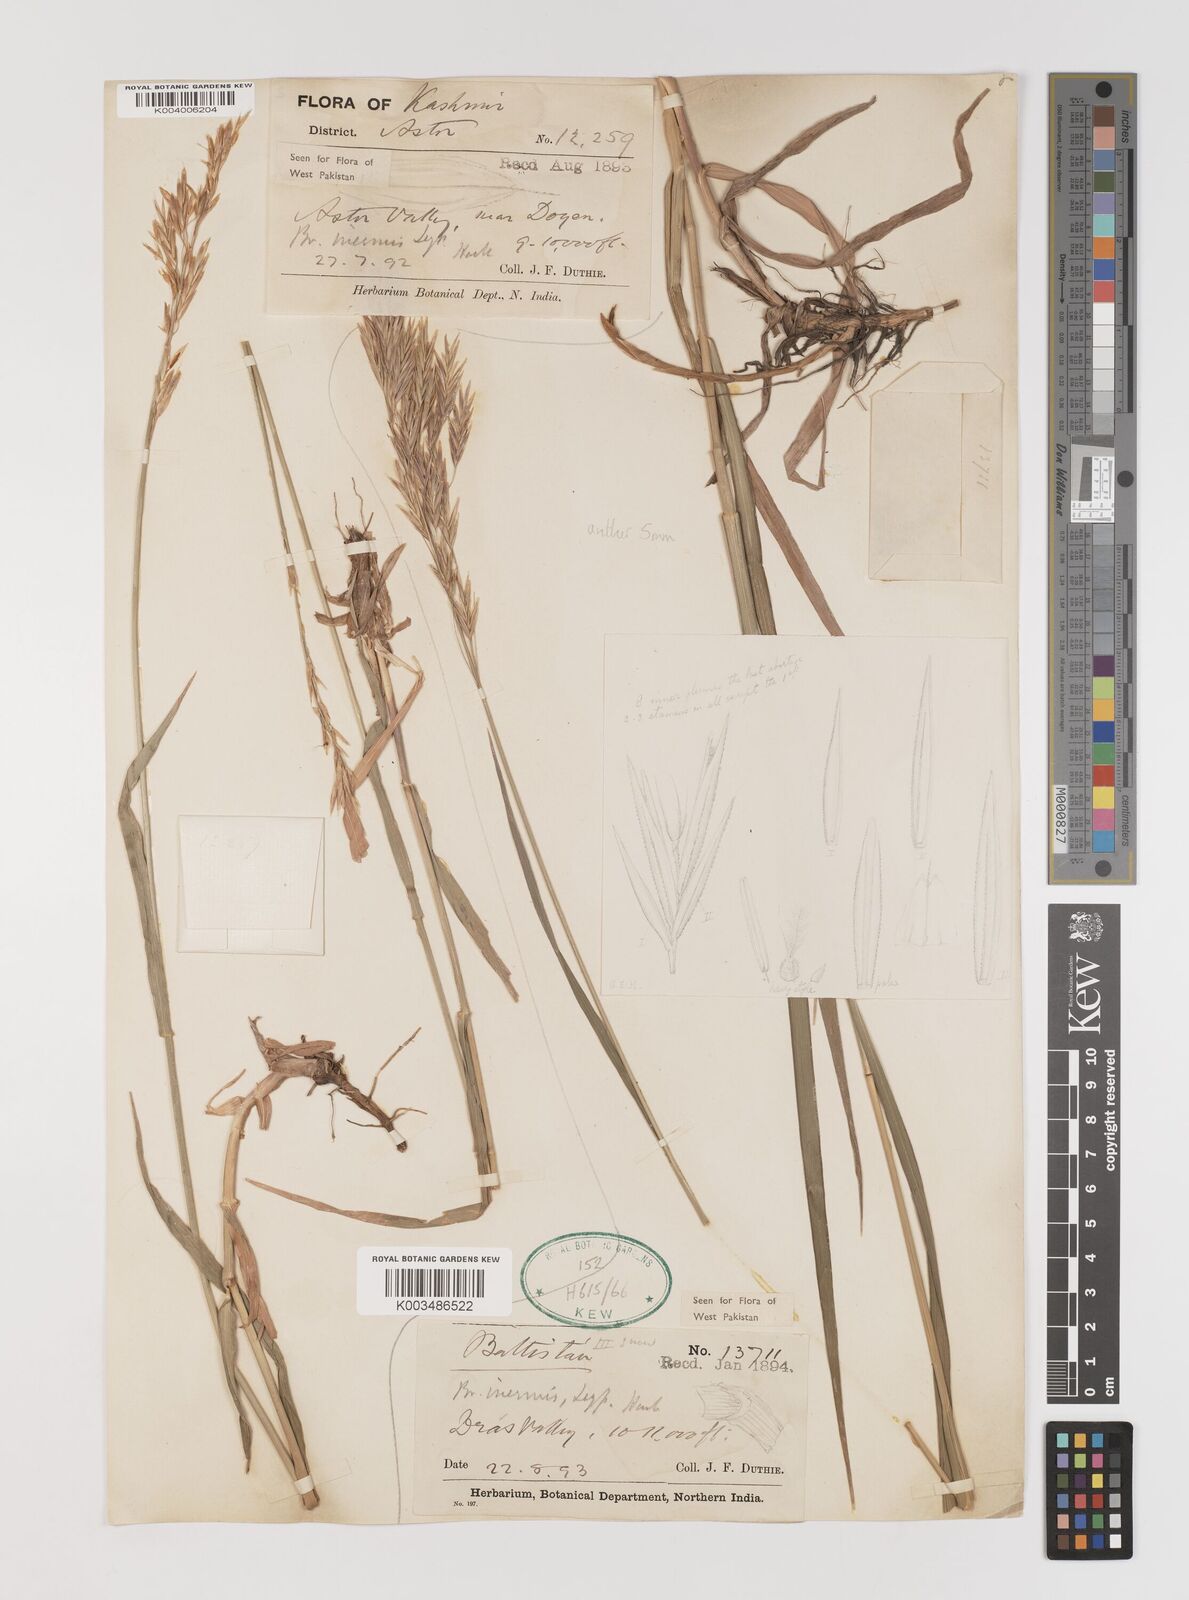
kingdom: Plantae
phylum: Tracheophyta
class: Liliopsida
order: Poales
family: Poaceae
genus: Bromus
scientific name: Bromus inermis
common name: Smooth brome
